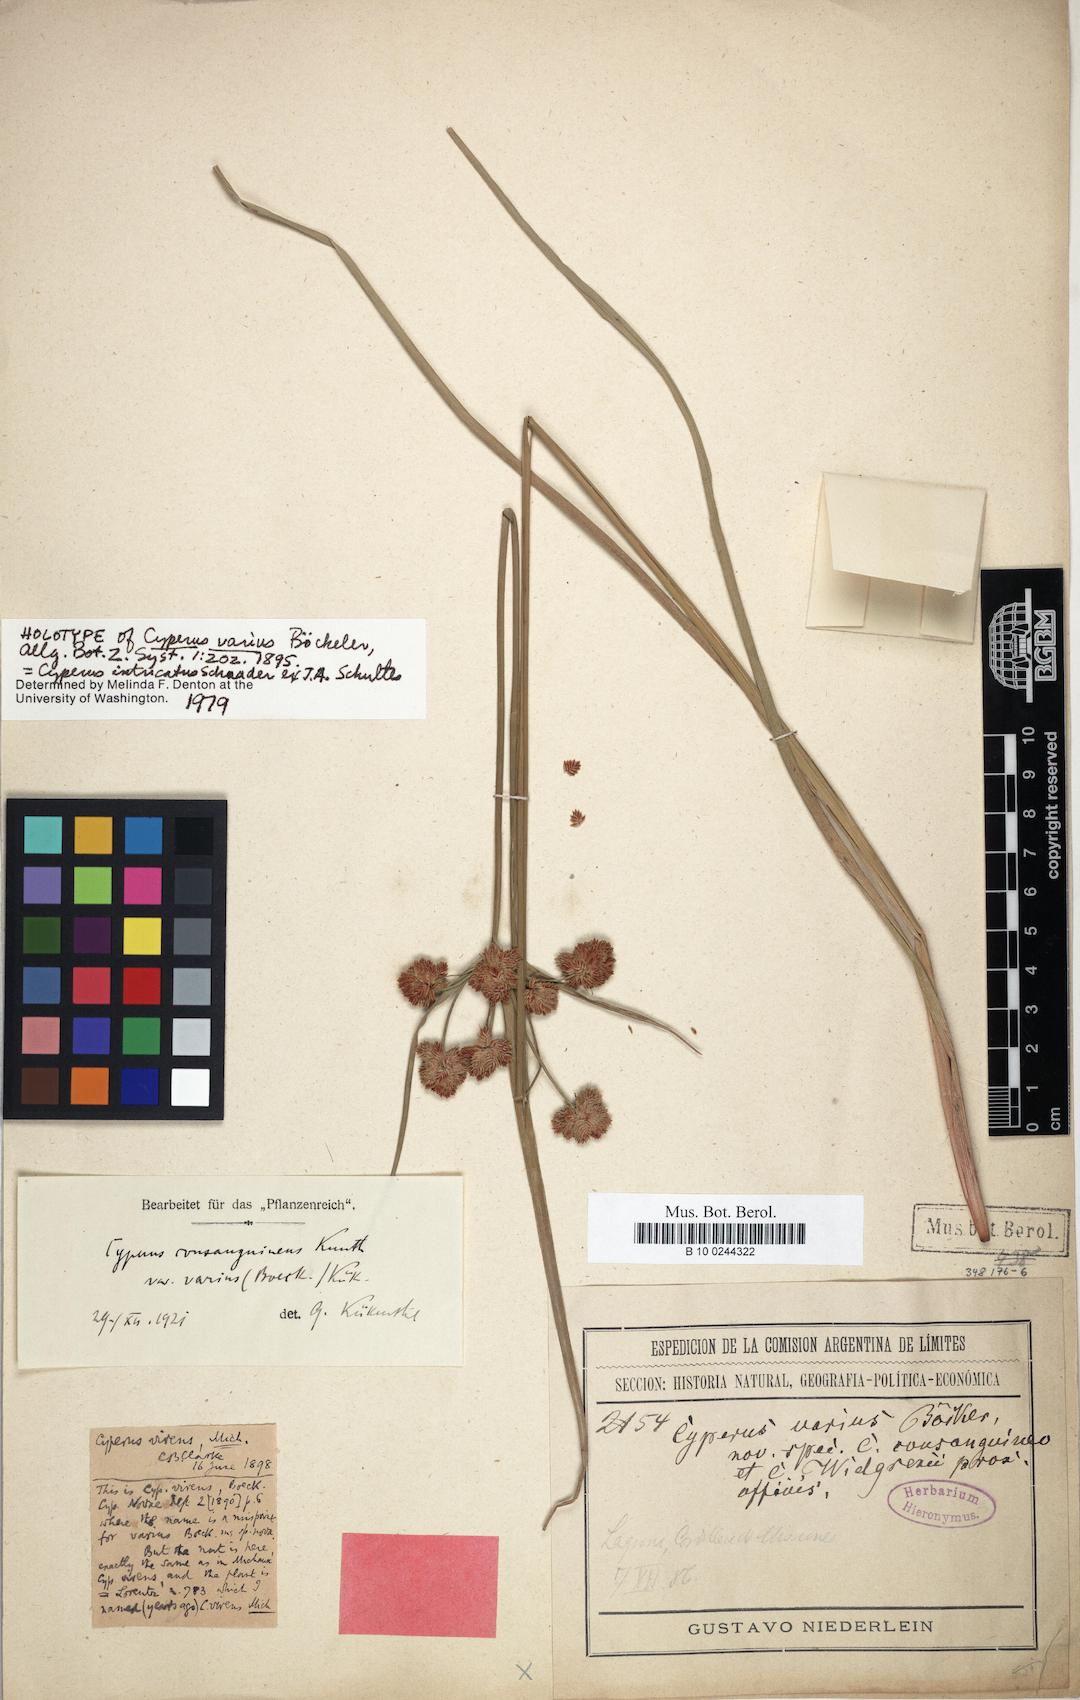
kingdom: Plantae
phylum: Tracheophyta
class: Liliopsida
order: Poales
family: Cyperaceae
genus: Cyperus
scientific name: Cyperus intricatus
